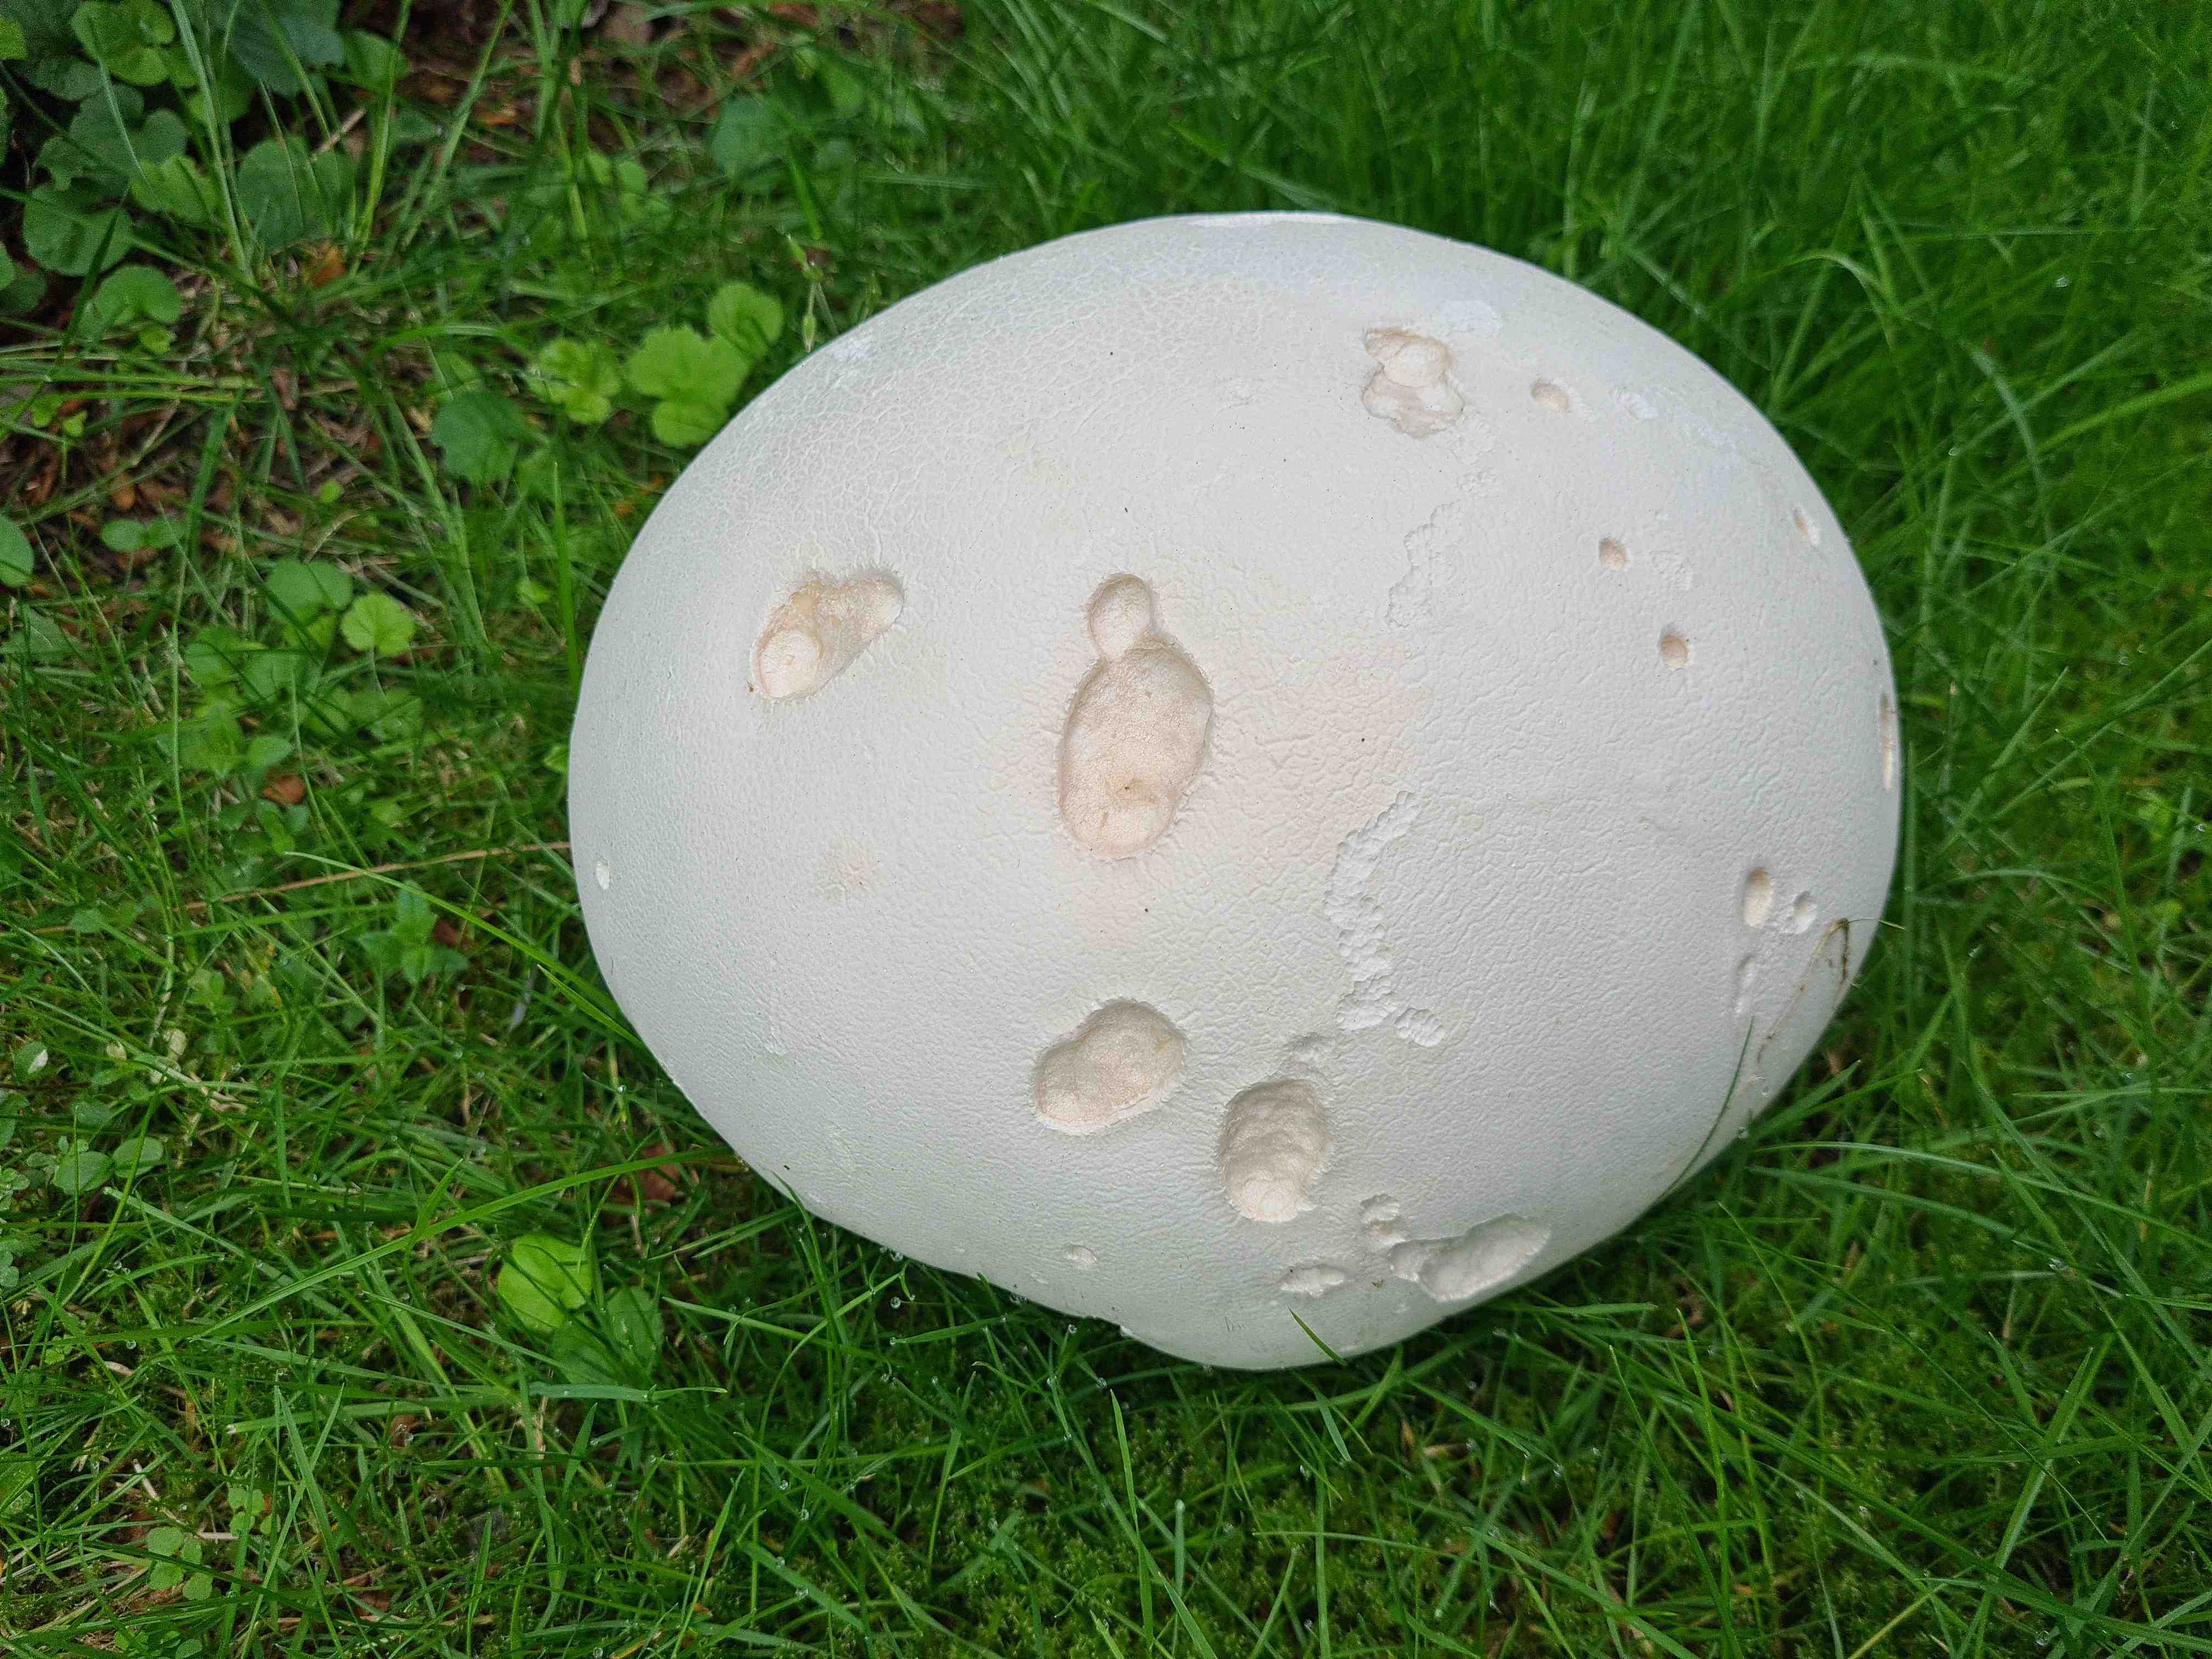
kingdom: Fungi
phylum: Basidiomycota
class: Agaricomycetes
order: Agaricales
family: Lycoperdaceae
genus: Calvatia
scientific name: Calvatia gigantea
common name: kæmpestøvbold
